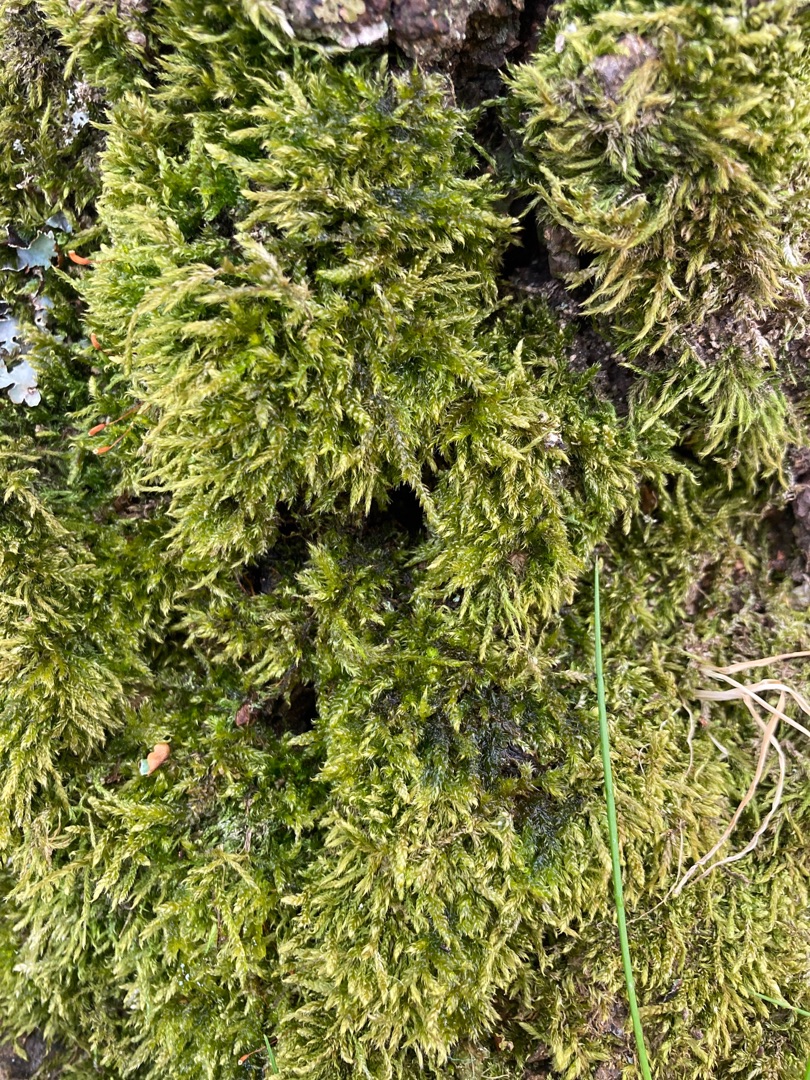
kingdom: Plantae
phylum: Bryophyta
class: Bryopsida
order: Hypnales
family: Hypnaceae
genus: Hypnum
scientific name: Hypnum cupressiforme
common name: Almindelig cypresmos
